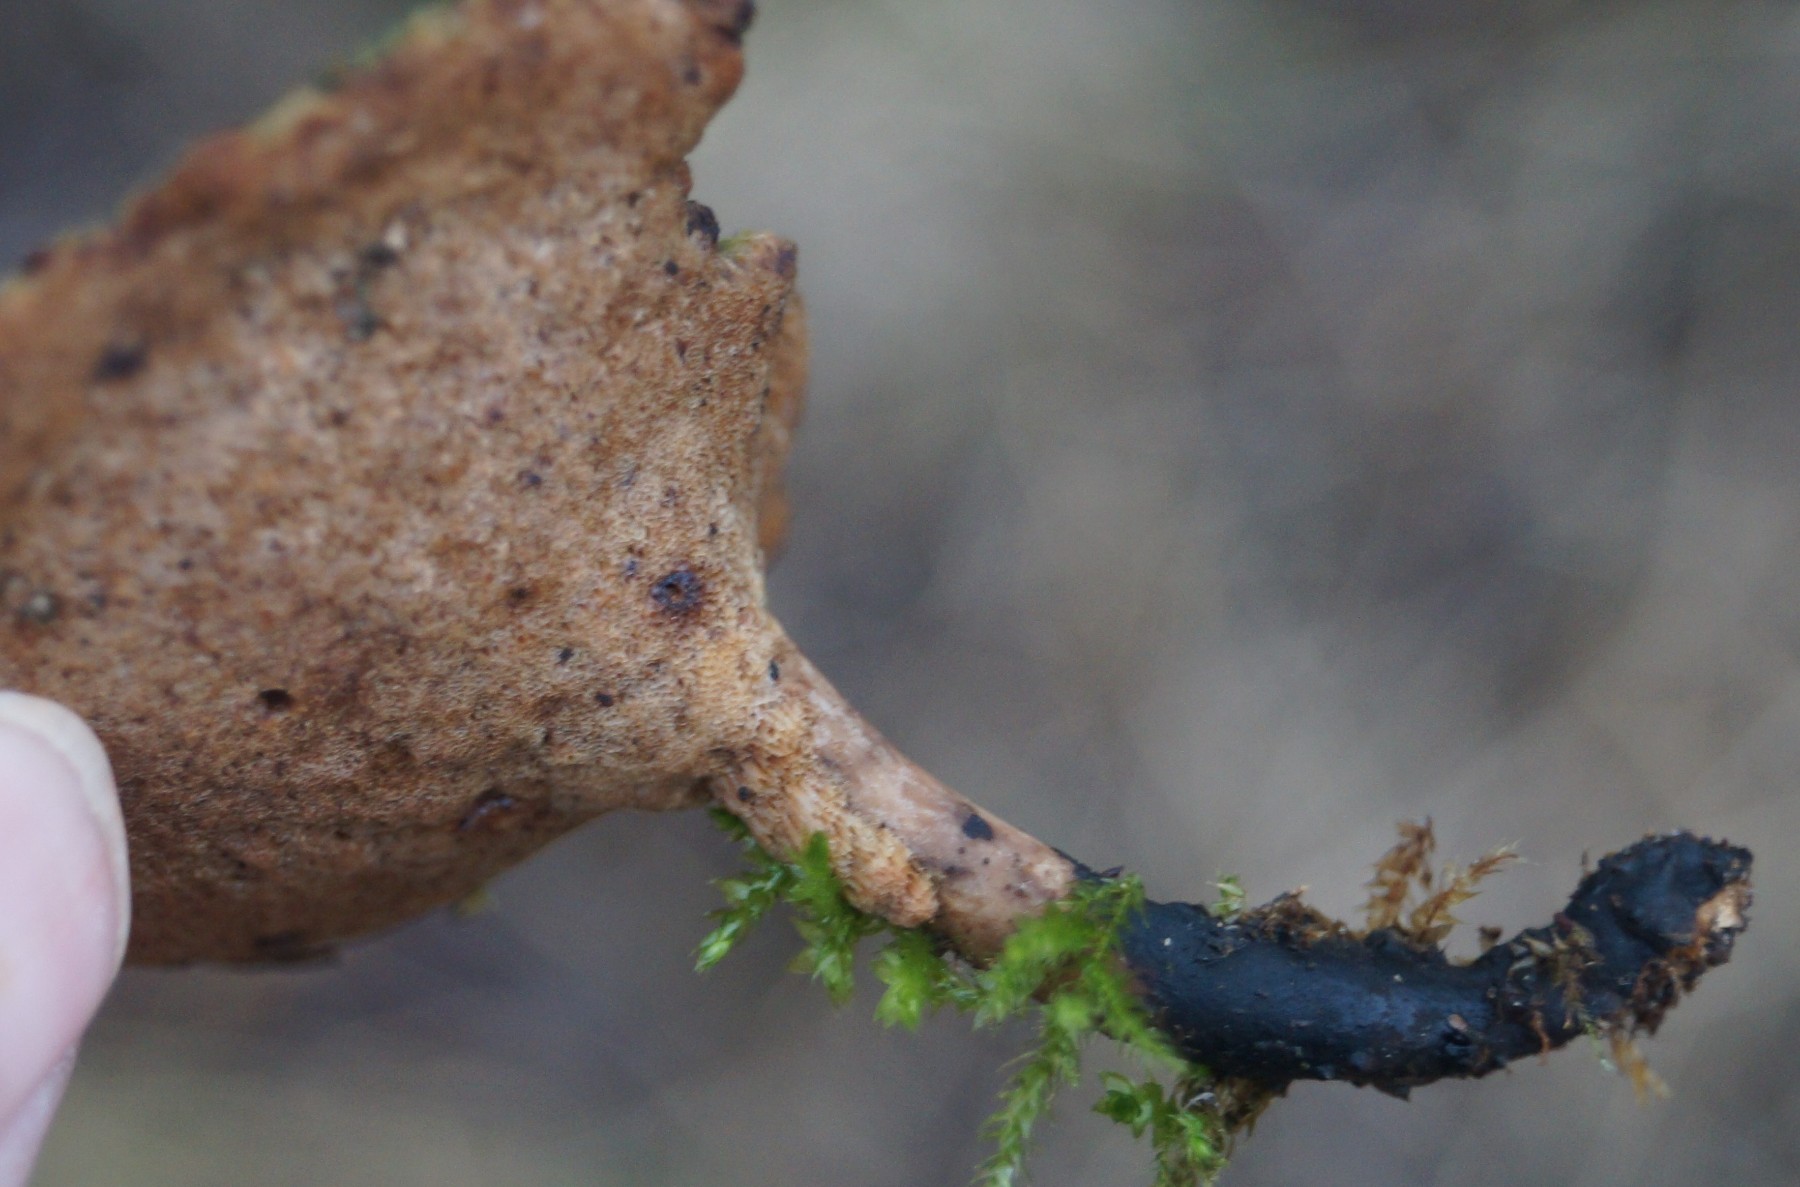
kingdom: Fungi
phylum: Basidiomycota
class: Agaricomycetes
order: Polyporales
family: Polyporaceae
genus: Cerioporus
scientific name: Cerioporus varius
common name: foranderlig stilkporesvamp
